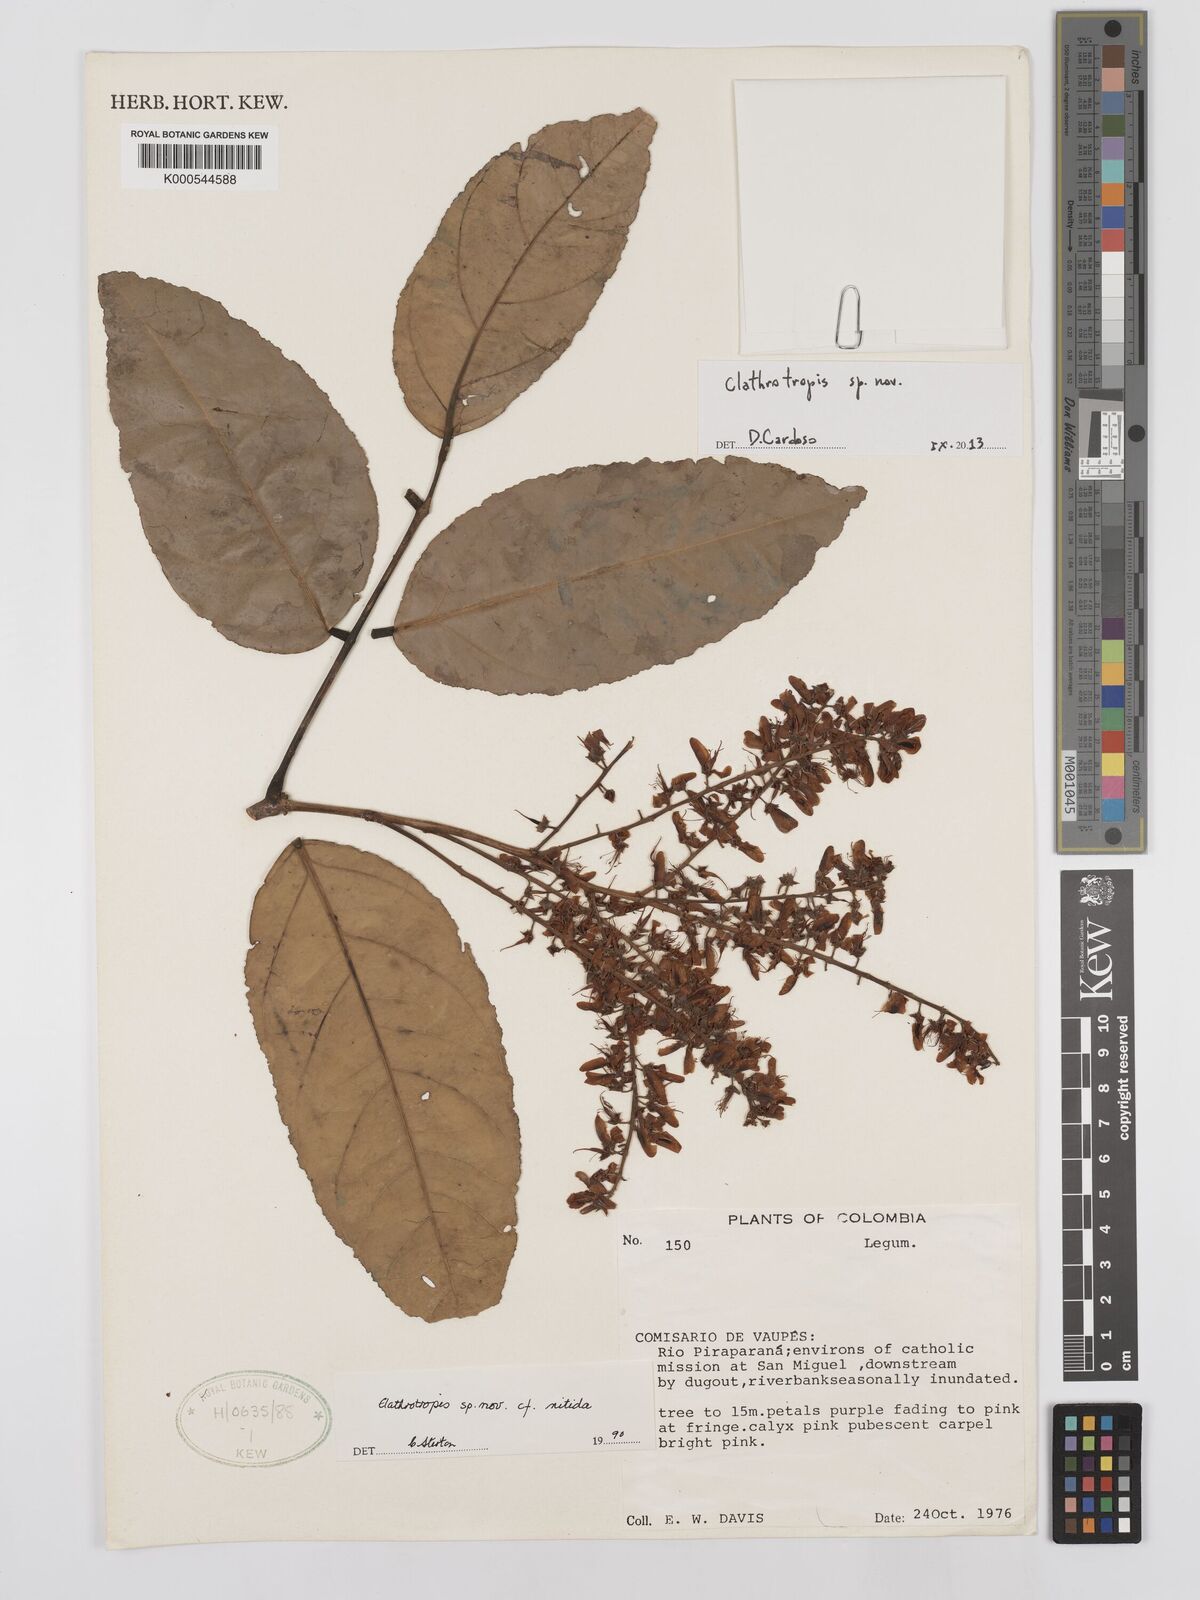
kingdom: Plantae
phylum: Tracheophyta
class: Magnoliopsida
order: Fabales
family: Fabaceae
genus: Clathrotropis
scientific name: Clathrotropis rosea
